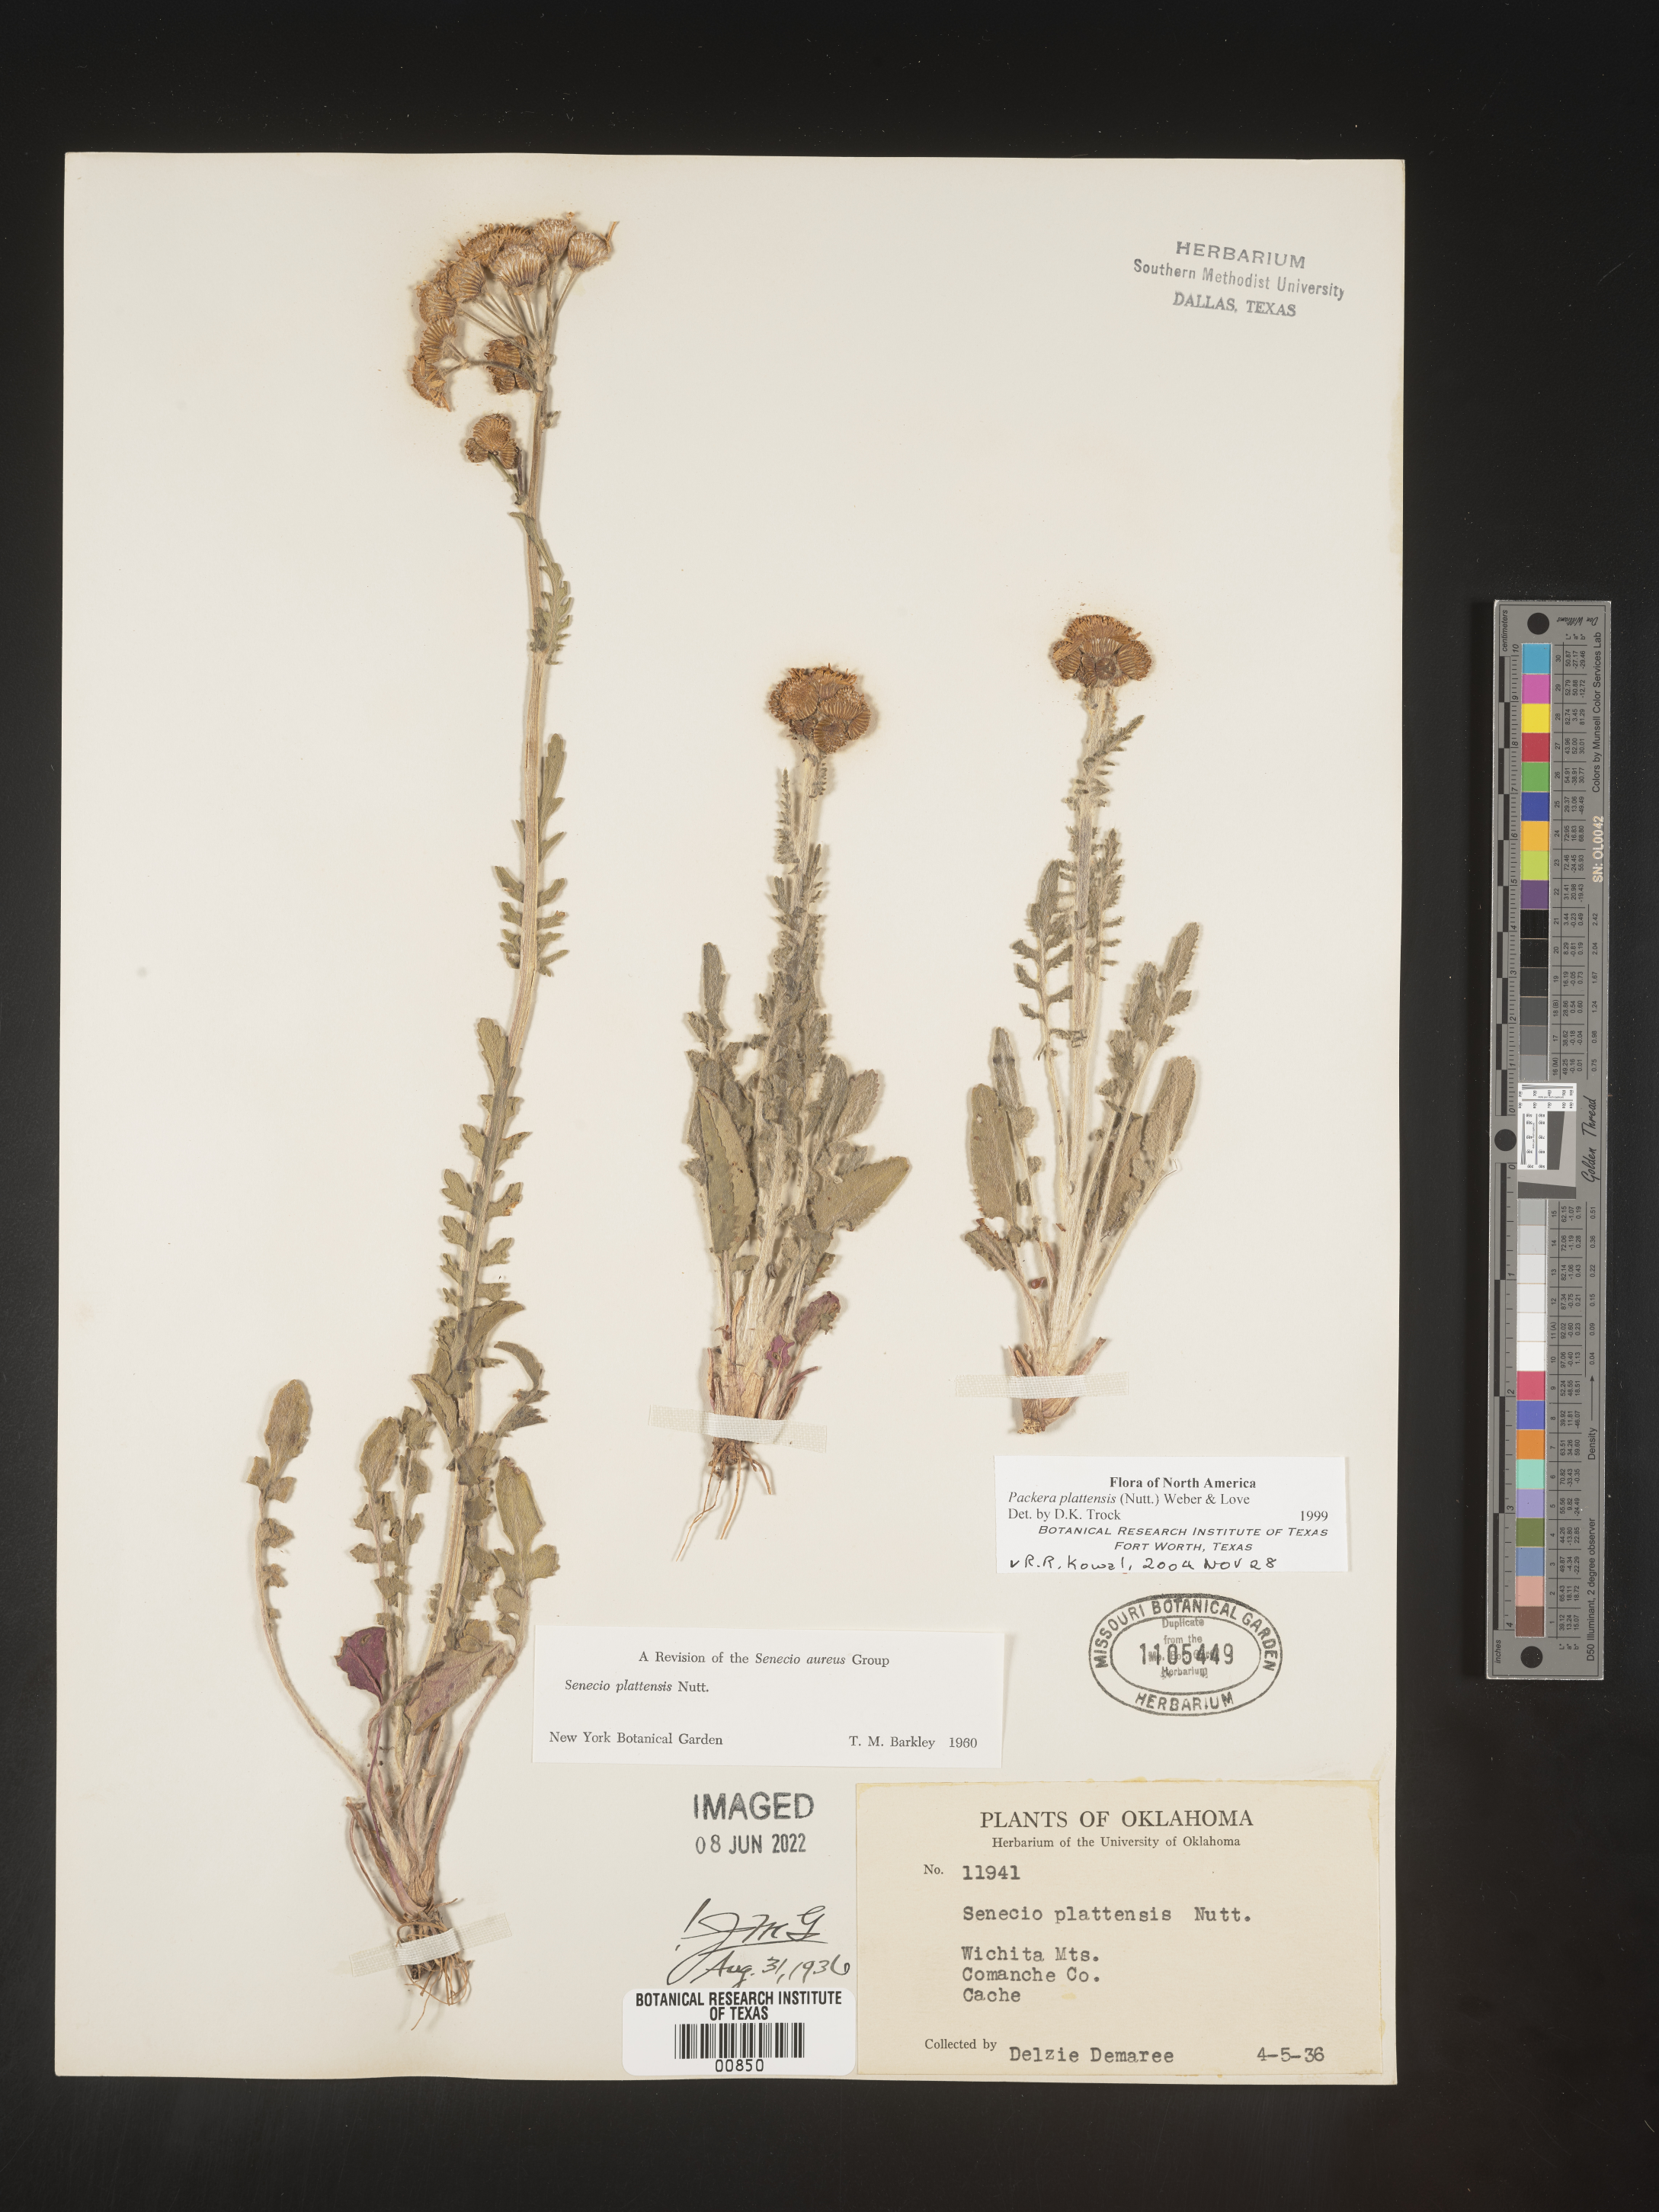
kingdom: Plantae
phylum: Tracheophyta
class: Magnoliopsida
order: Asterales
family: Asteraceae
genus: Packera
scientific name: Packera plattensis
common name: Prairie groundsel
